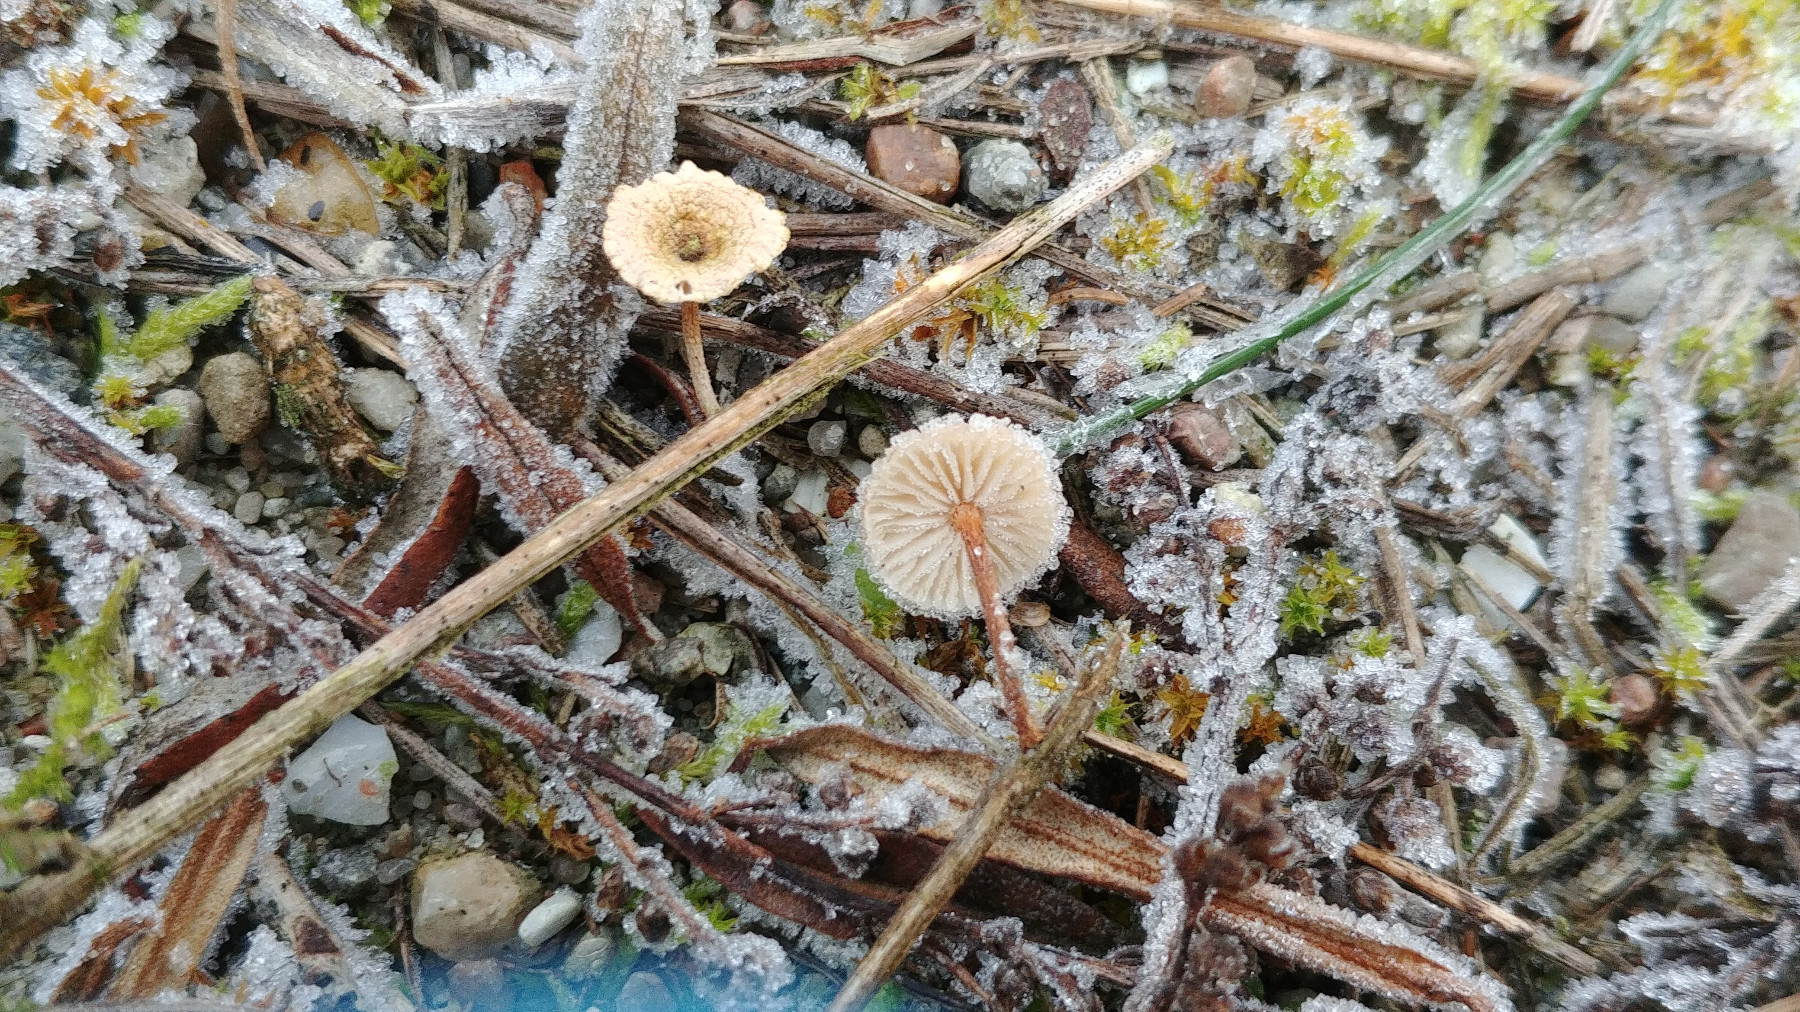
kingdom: Fungi
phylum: Basidiomycota
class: Agaricomycetes
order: Agaricales
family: Marasmiaceae
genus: Crinipellis
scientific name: Crinipellis scabella
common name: børstefod
